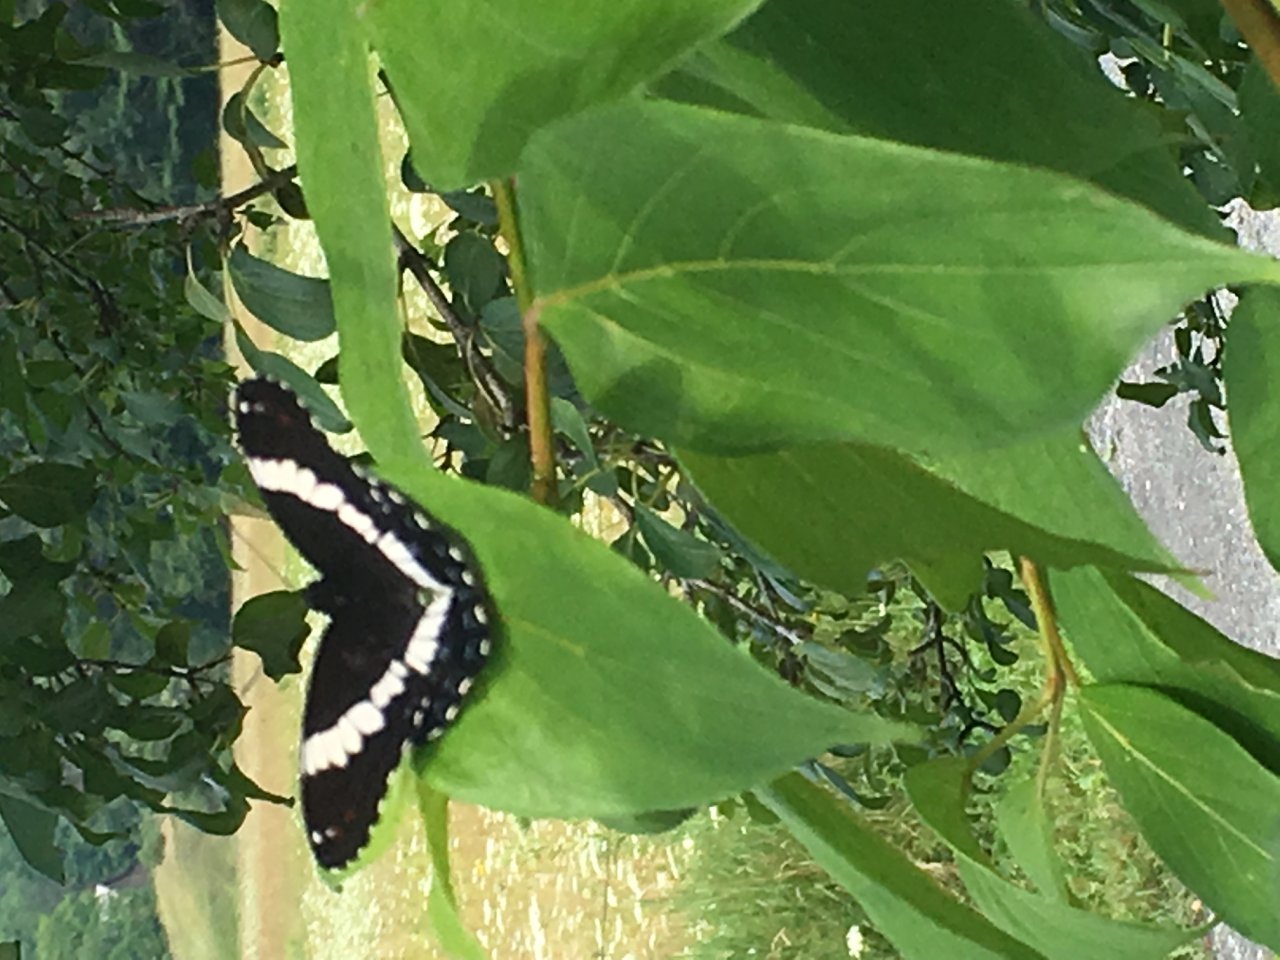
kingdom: Animalia
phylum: Arthropoda
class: Insecta
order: Lepidoptera
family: Nymphalidae
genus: Limenitis
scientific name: Limenitis arthemis
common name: Red-spotted Admiral
